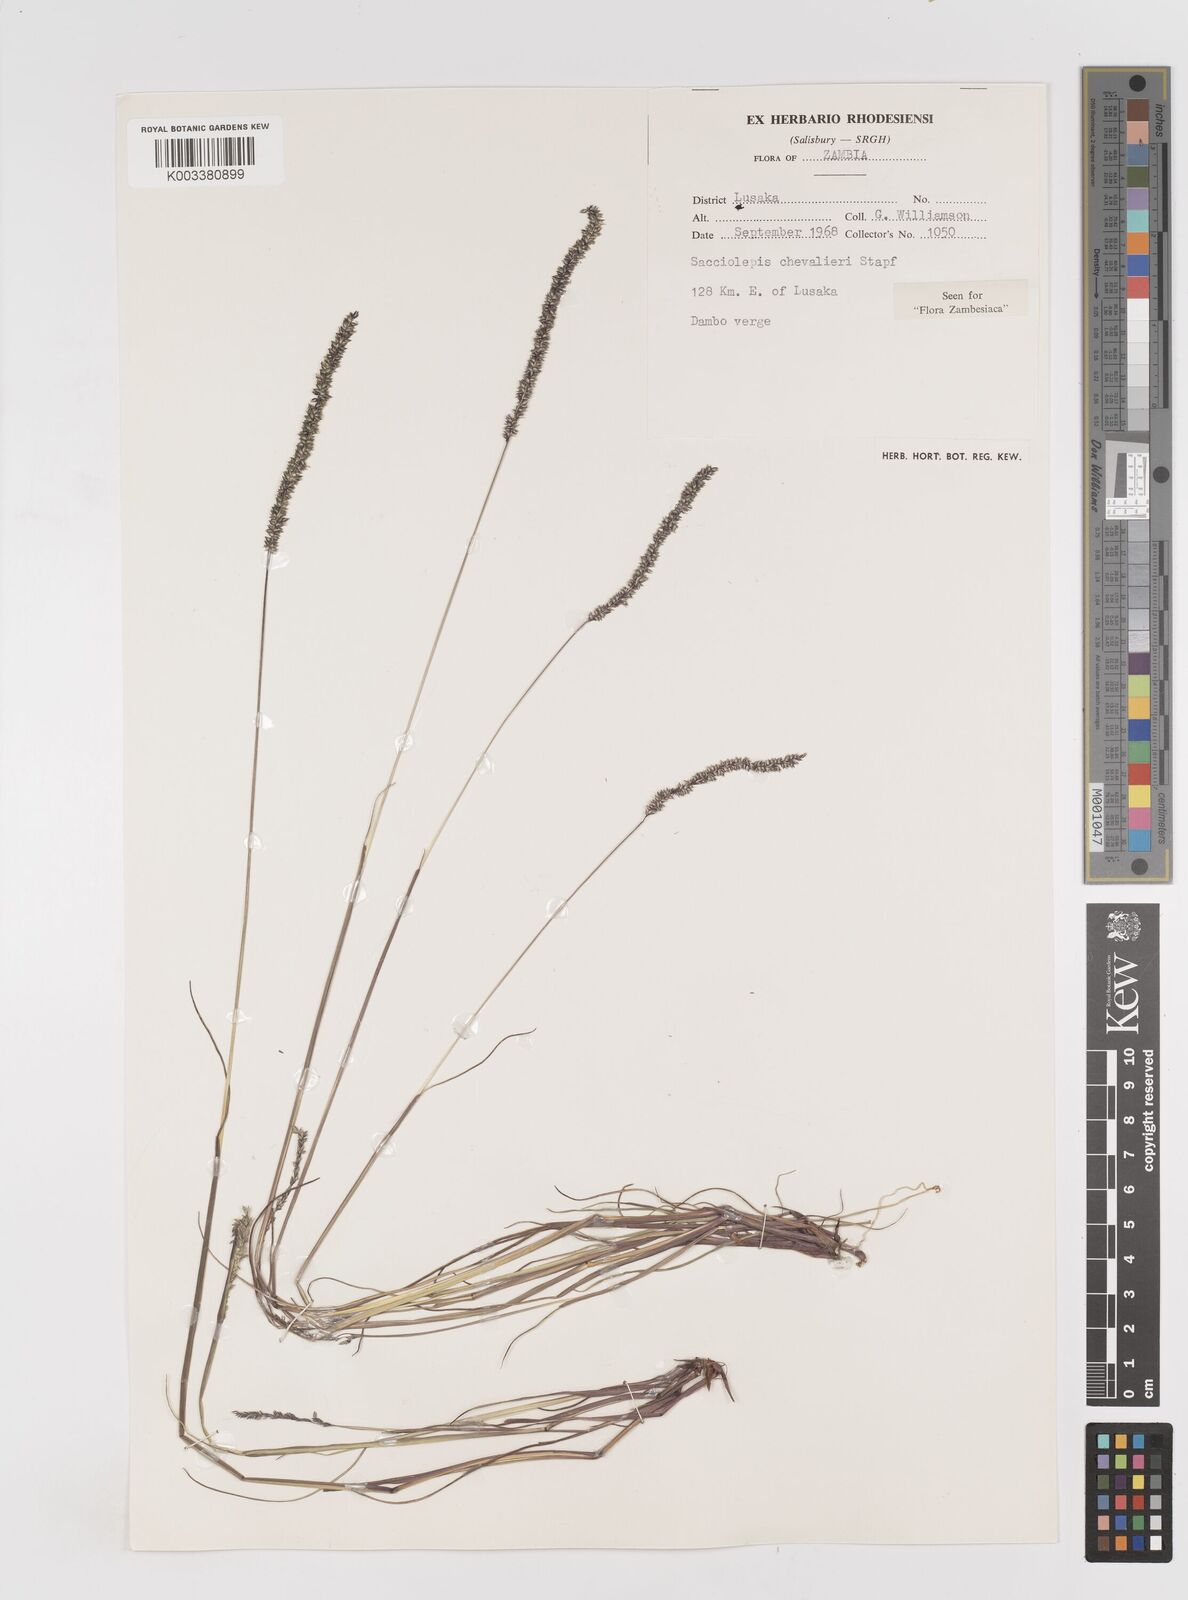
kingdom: Plantae
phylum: Tracheophyta
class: Liliopsida
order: Poales
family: Poaceae
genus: Sacciolepis
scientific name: Sacciolepis chevalieri
